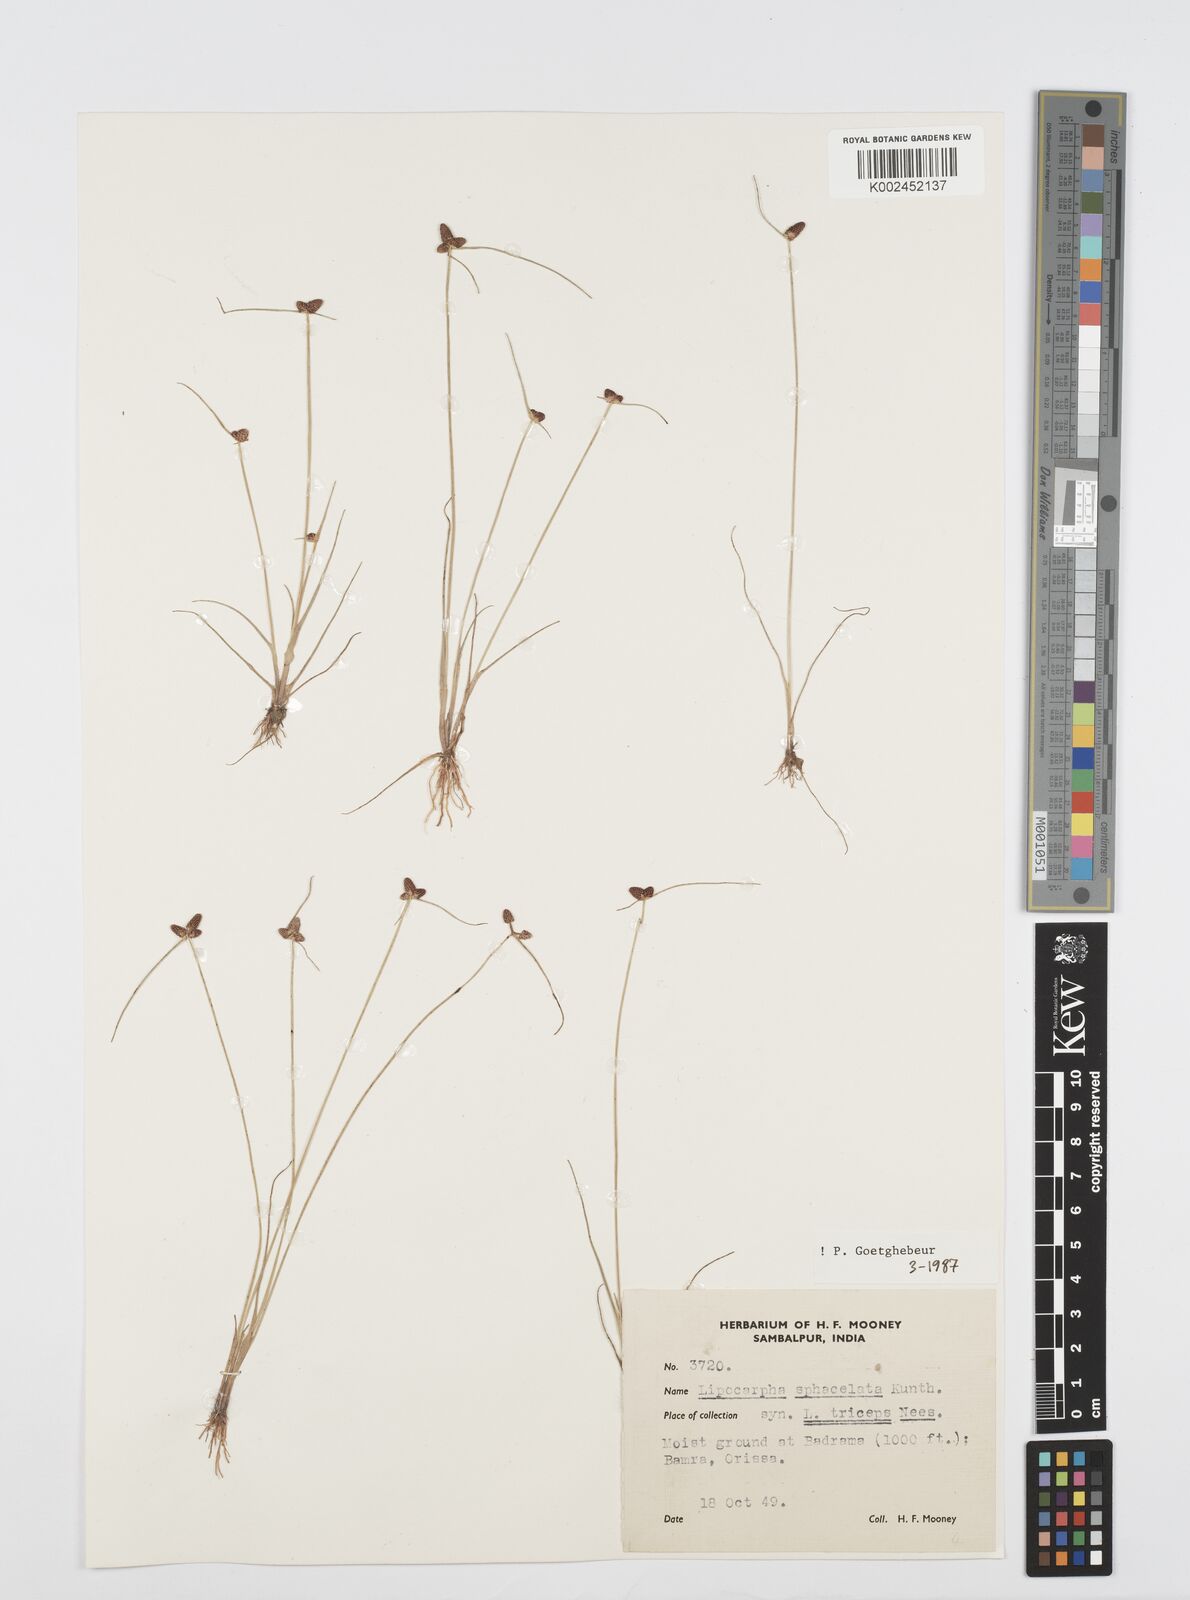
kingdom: Plantae
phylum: Tracheophyta
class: Liliopsida
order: Poales
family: Cyperaceae
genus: Cyperus
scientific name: Cyperus sphacelatus
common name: Roadside flatsedge
